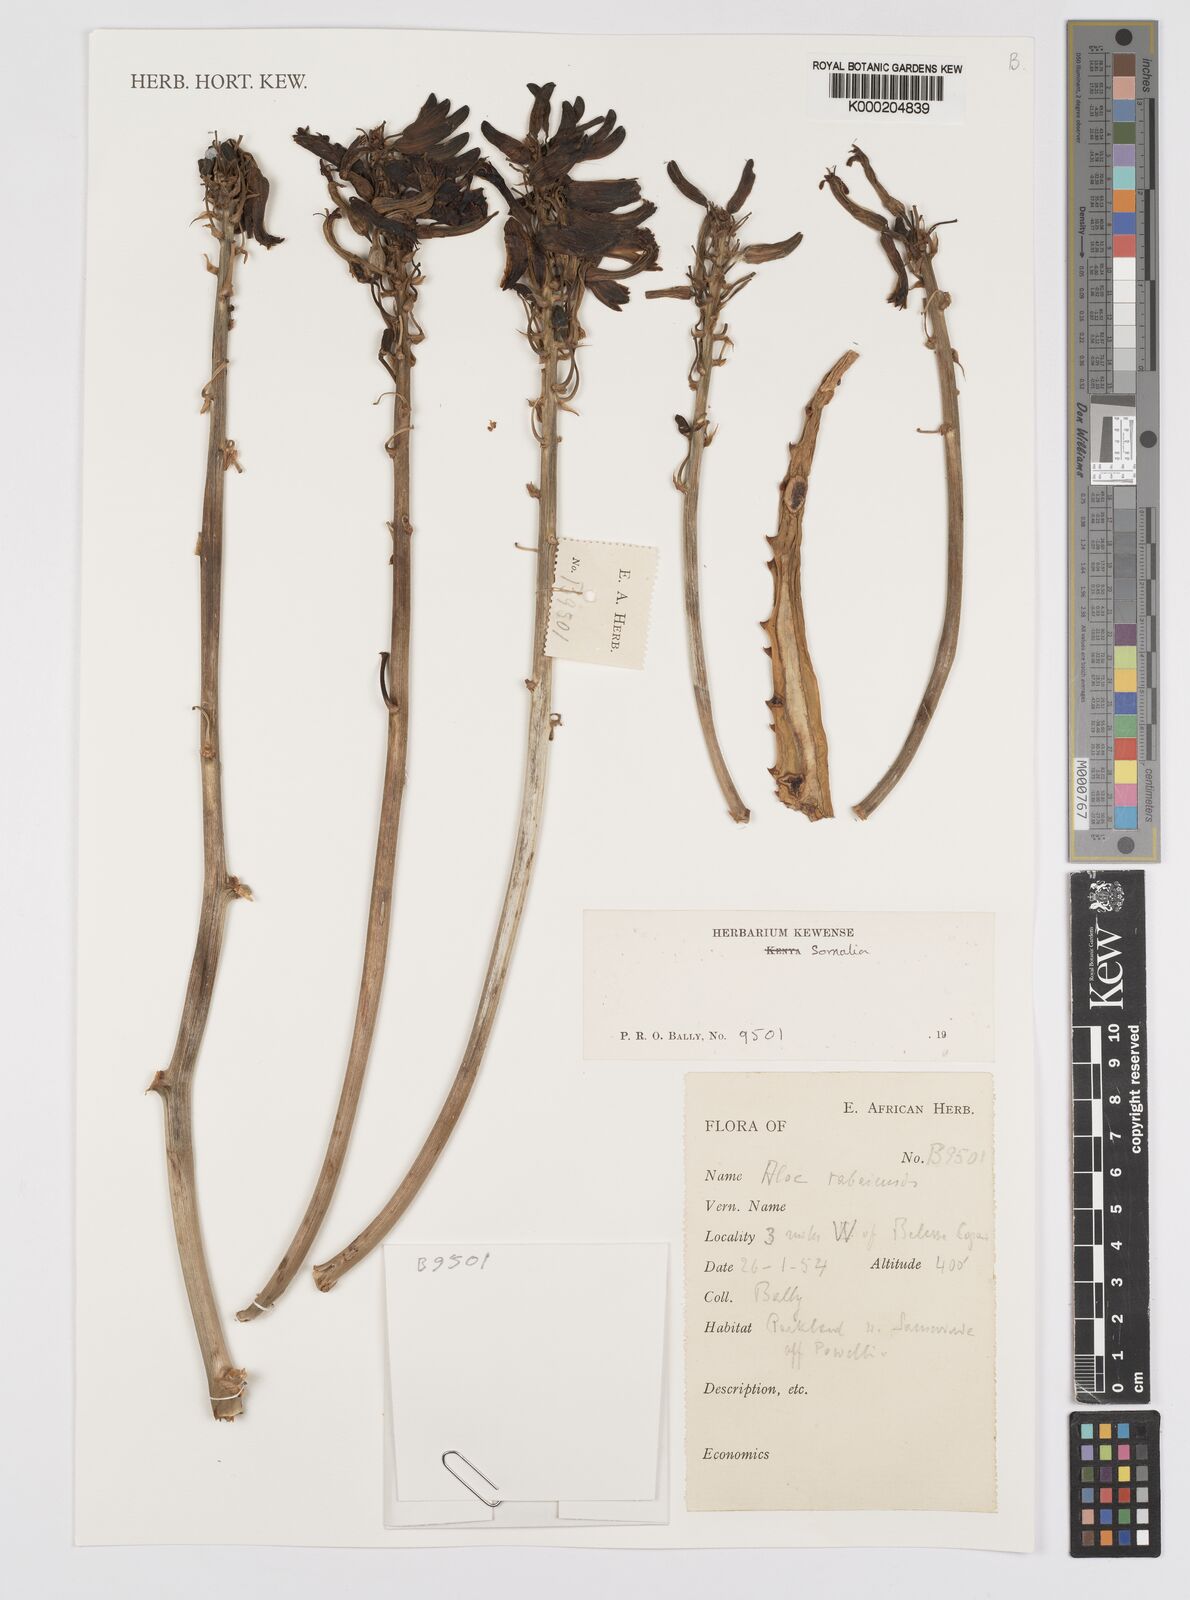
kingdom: Plantae
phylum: Tracheophyta
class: Liliopsida
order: Asparagales
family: Asphodelaceae
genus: Aloe
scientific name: Aloe rabaiensis
